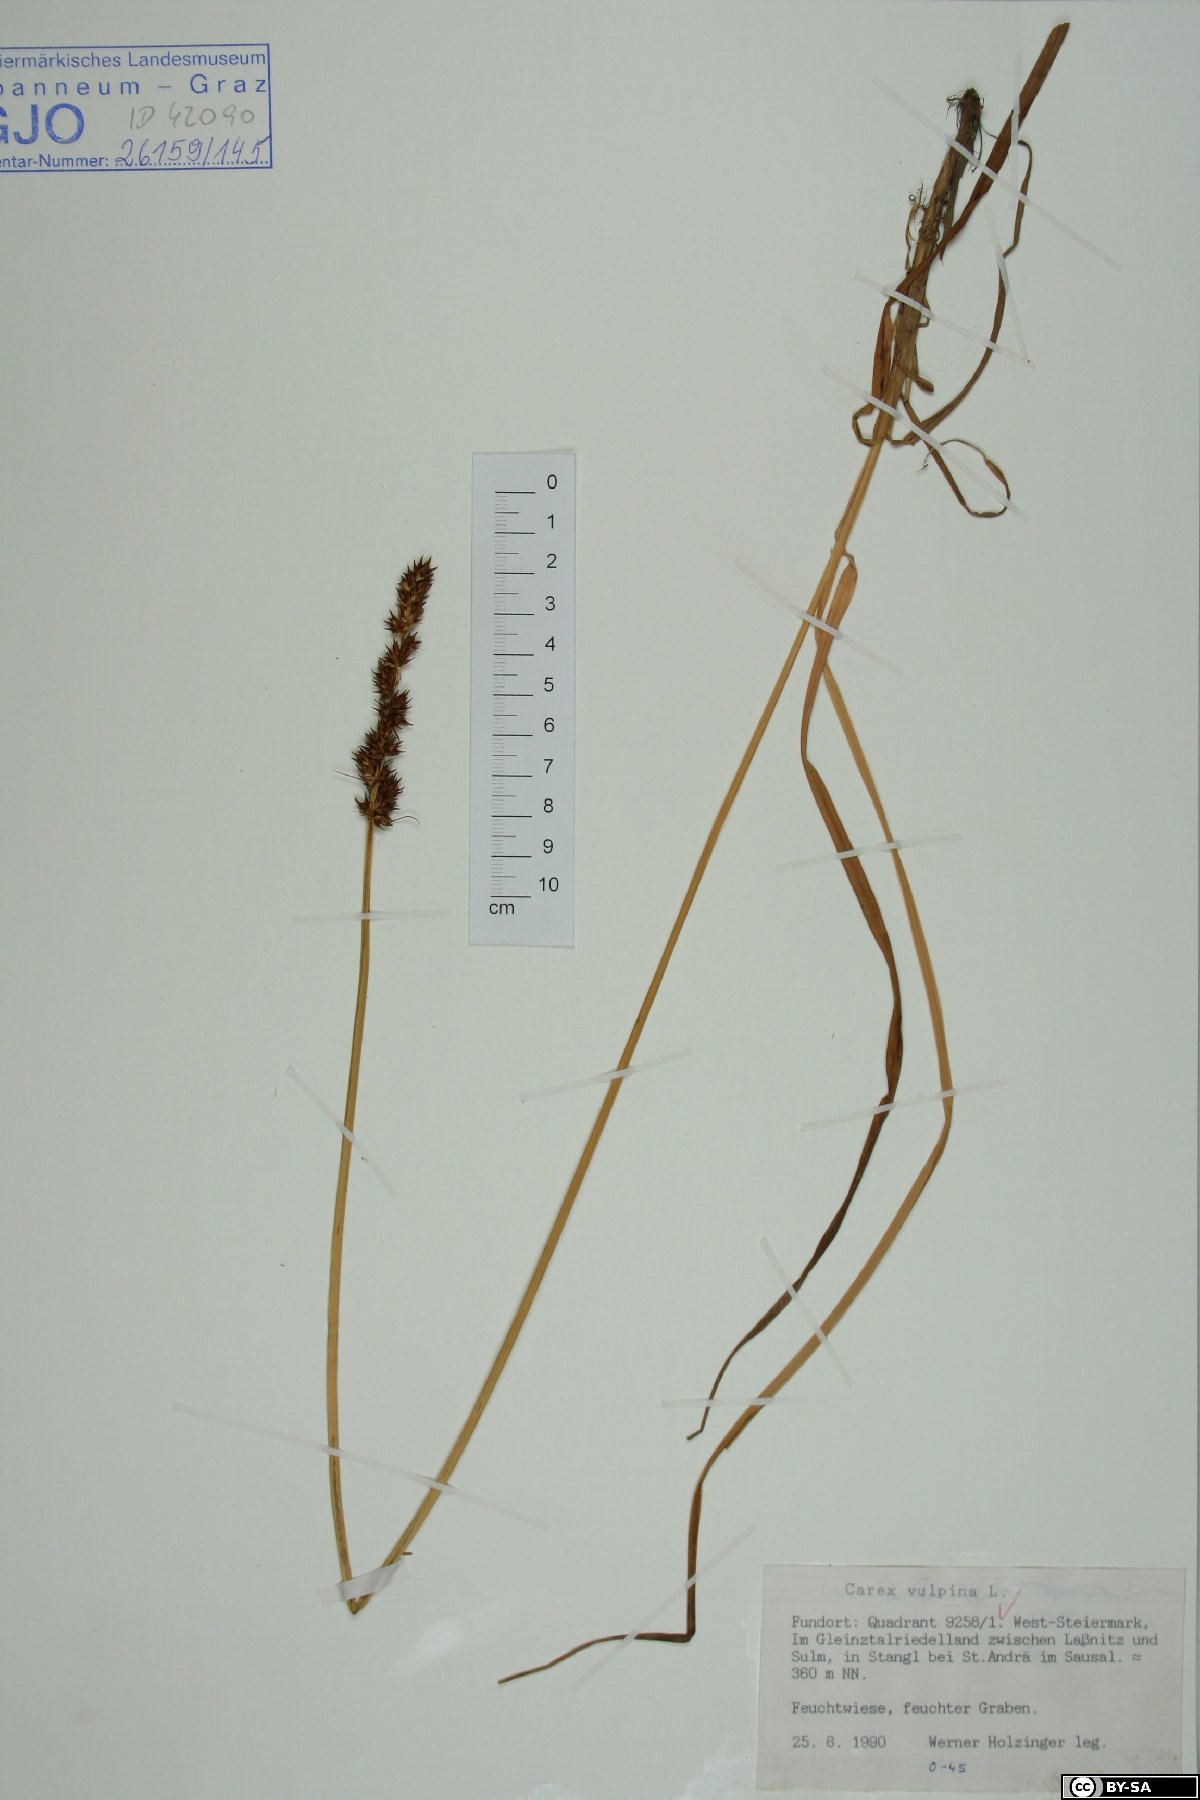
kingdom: Plantae
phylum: Tracheophyta
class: Liliopsida
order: Poales
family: Cyperaceae
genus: Carex
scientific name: Carex vulpina
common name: True fox-sedge
